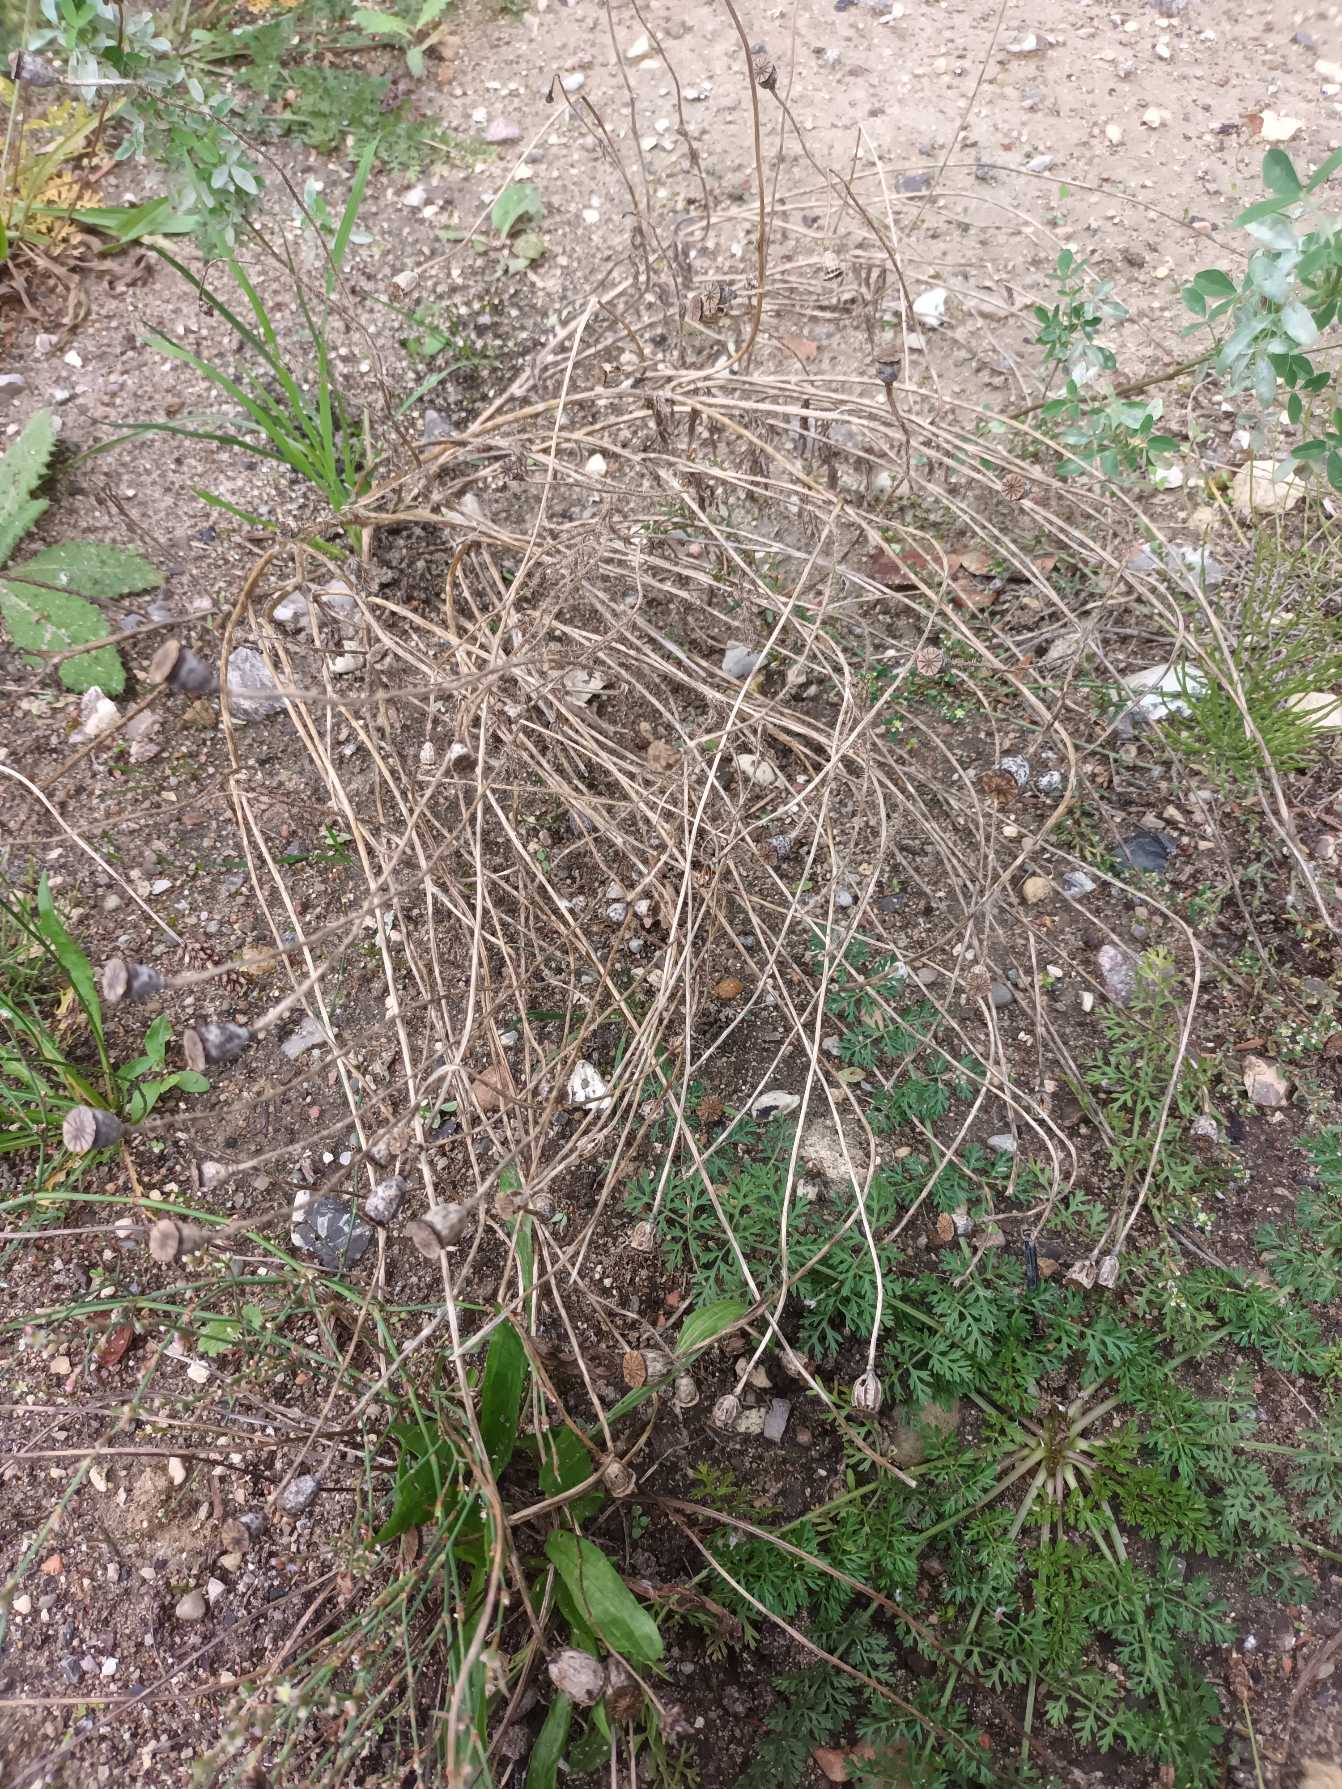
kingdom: Plantae
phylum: Tracheophyta
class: Magnoliopsida
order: Ranunculales
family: Papaveraceae
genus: Papaver
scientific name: Papaver rhoeas
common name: Korn-valmue
